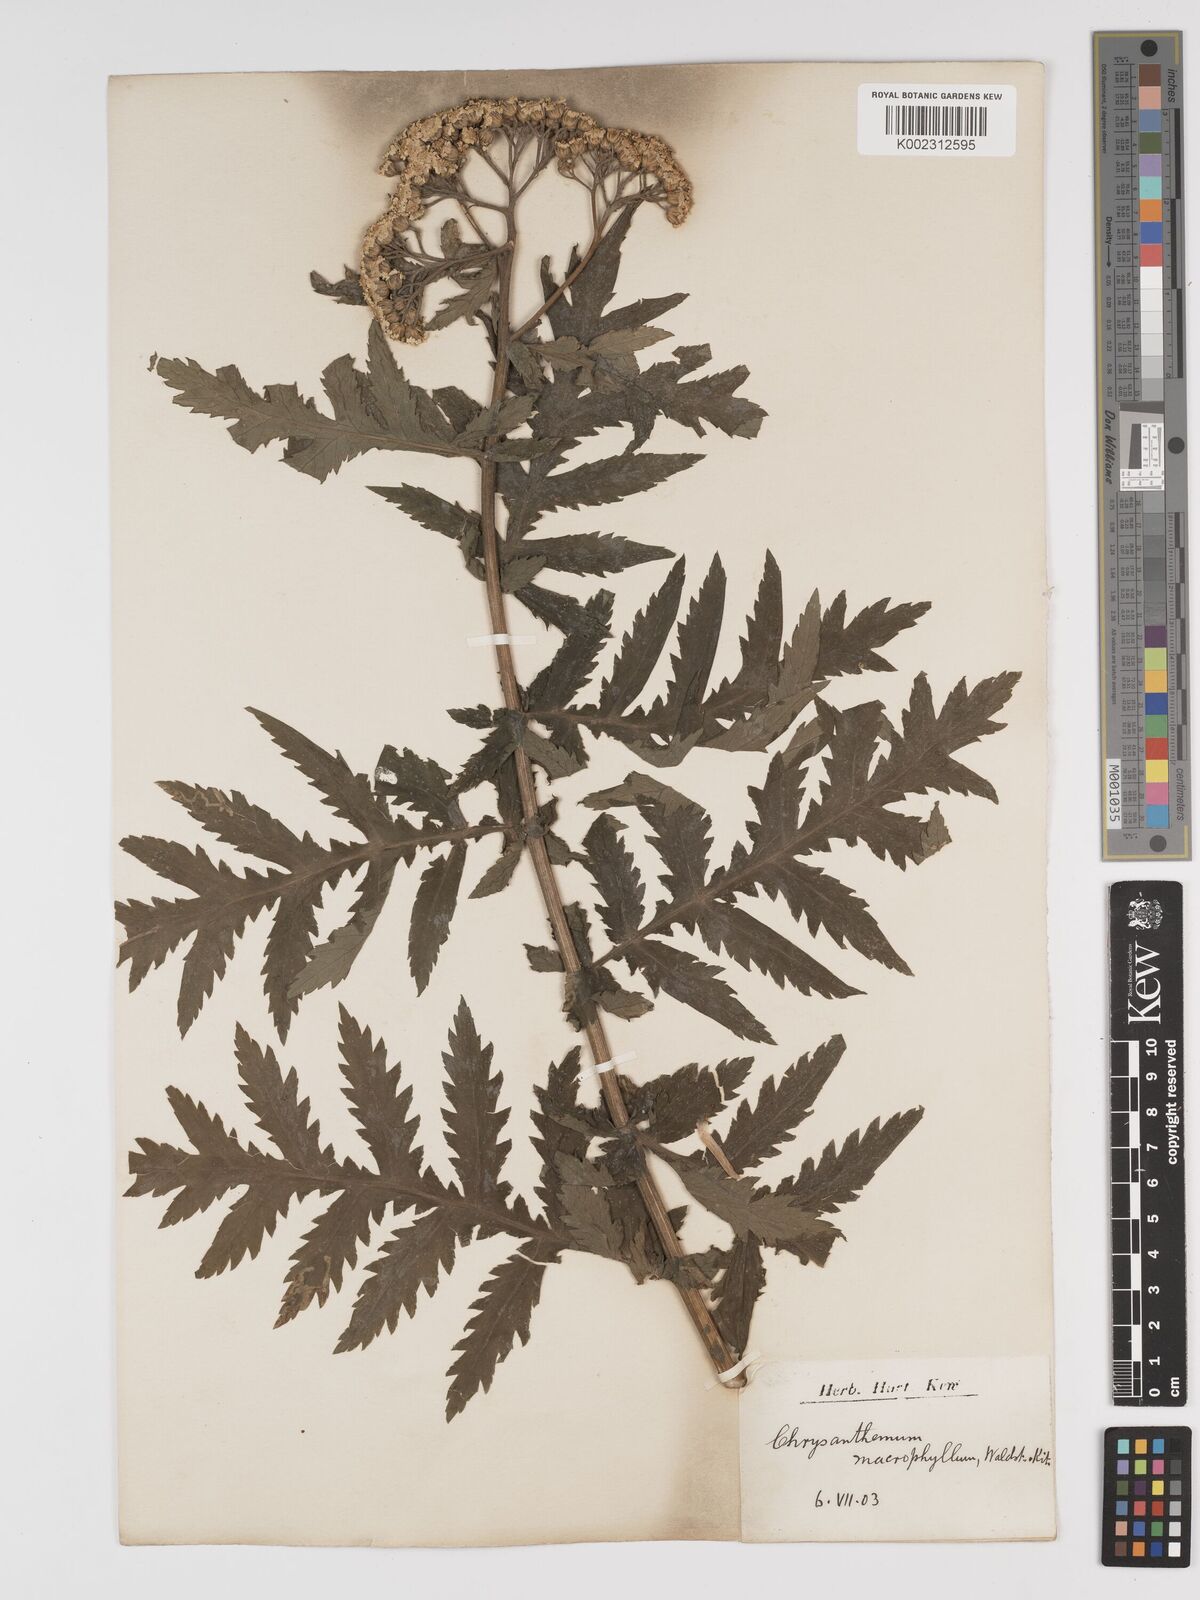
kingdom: Plantae
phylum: Tracheophyta
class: Magnoliopsida
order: Asterales
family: Asteraceae
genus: Tanacetum
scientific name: Tanacetum macrophyllum
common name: Rayed tansy
